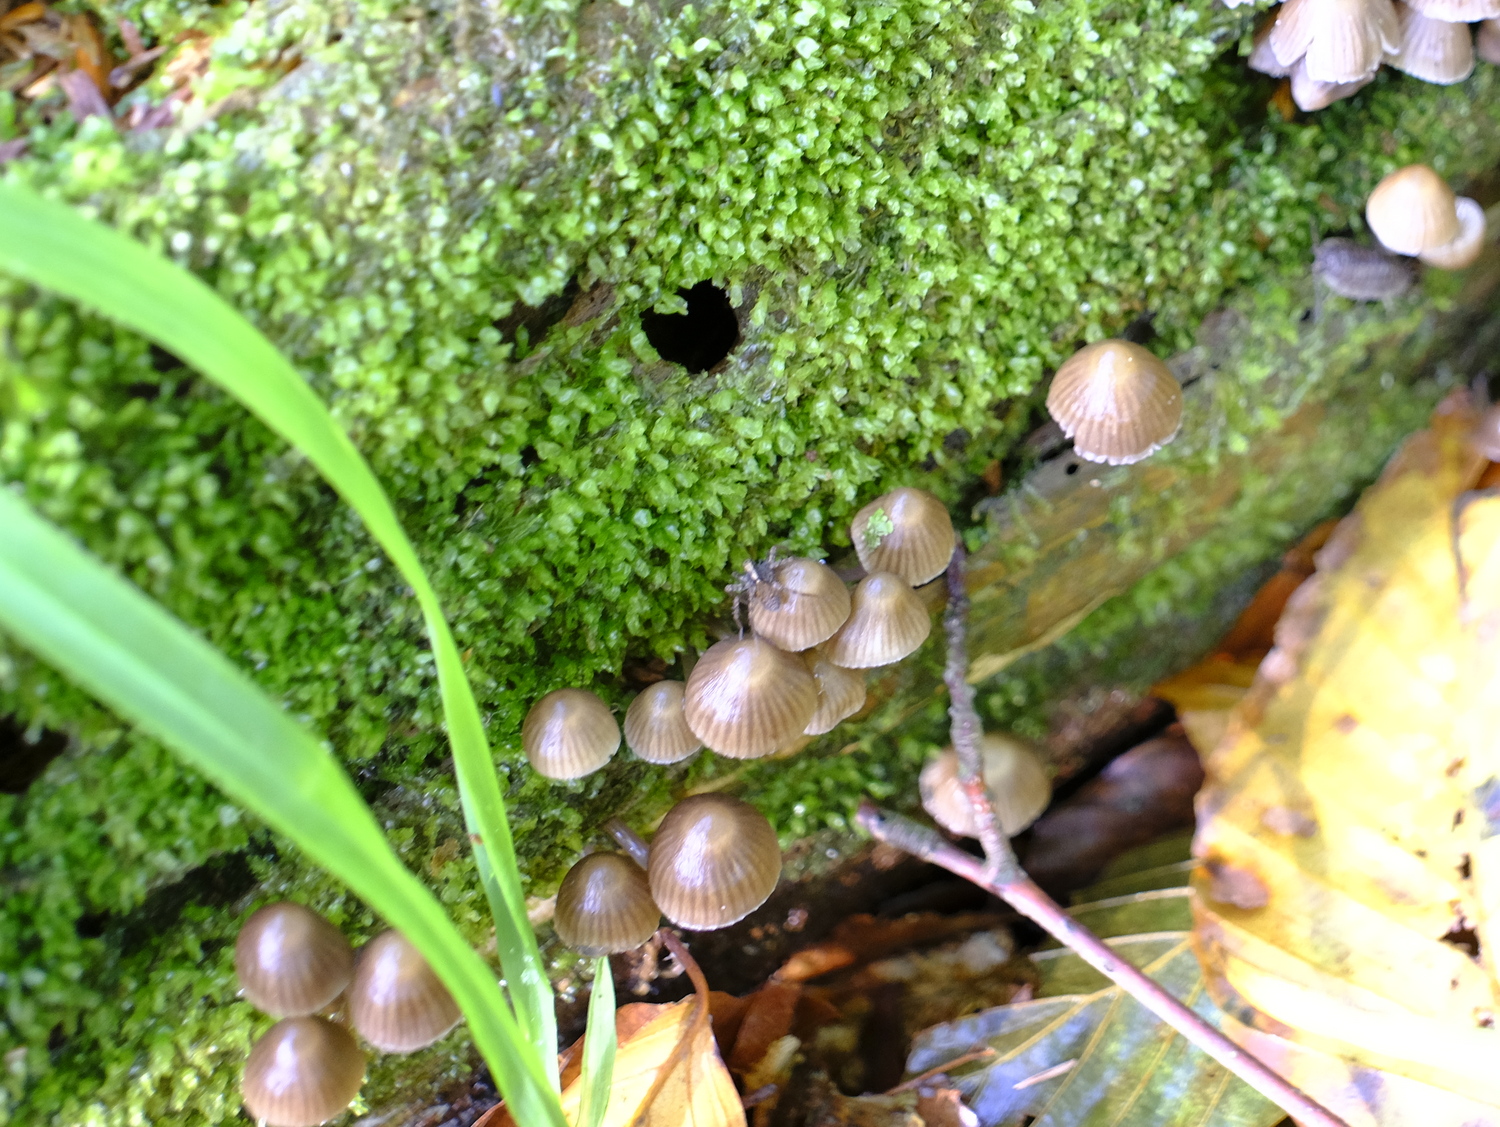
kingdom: Fungi
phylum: Basidiomycota
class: Agaricomycetes
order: Agaricales
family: Mycenaceae
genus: Mycena
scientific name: Mycena stipata
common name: stinkende huesvamp
